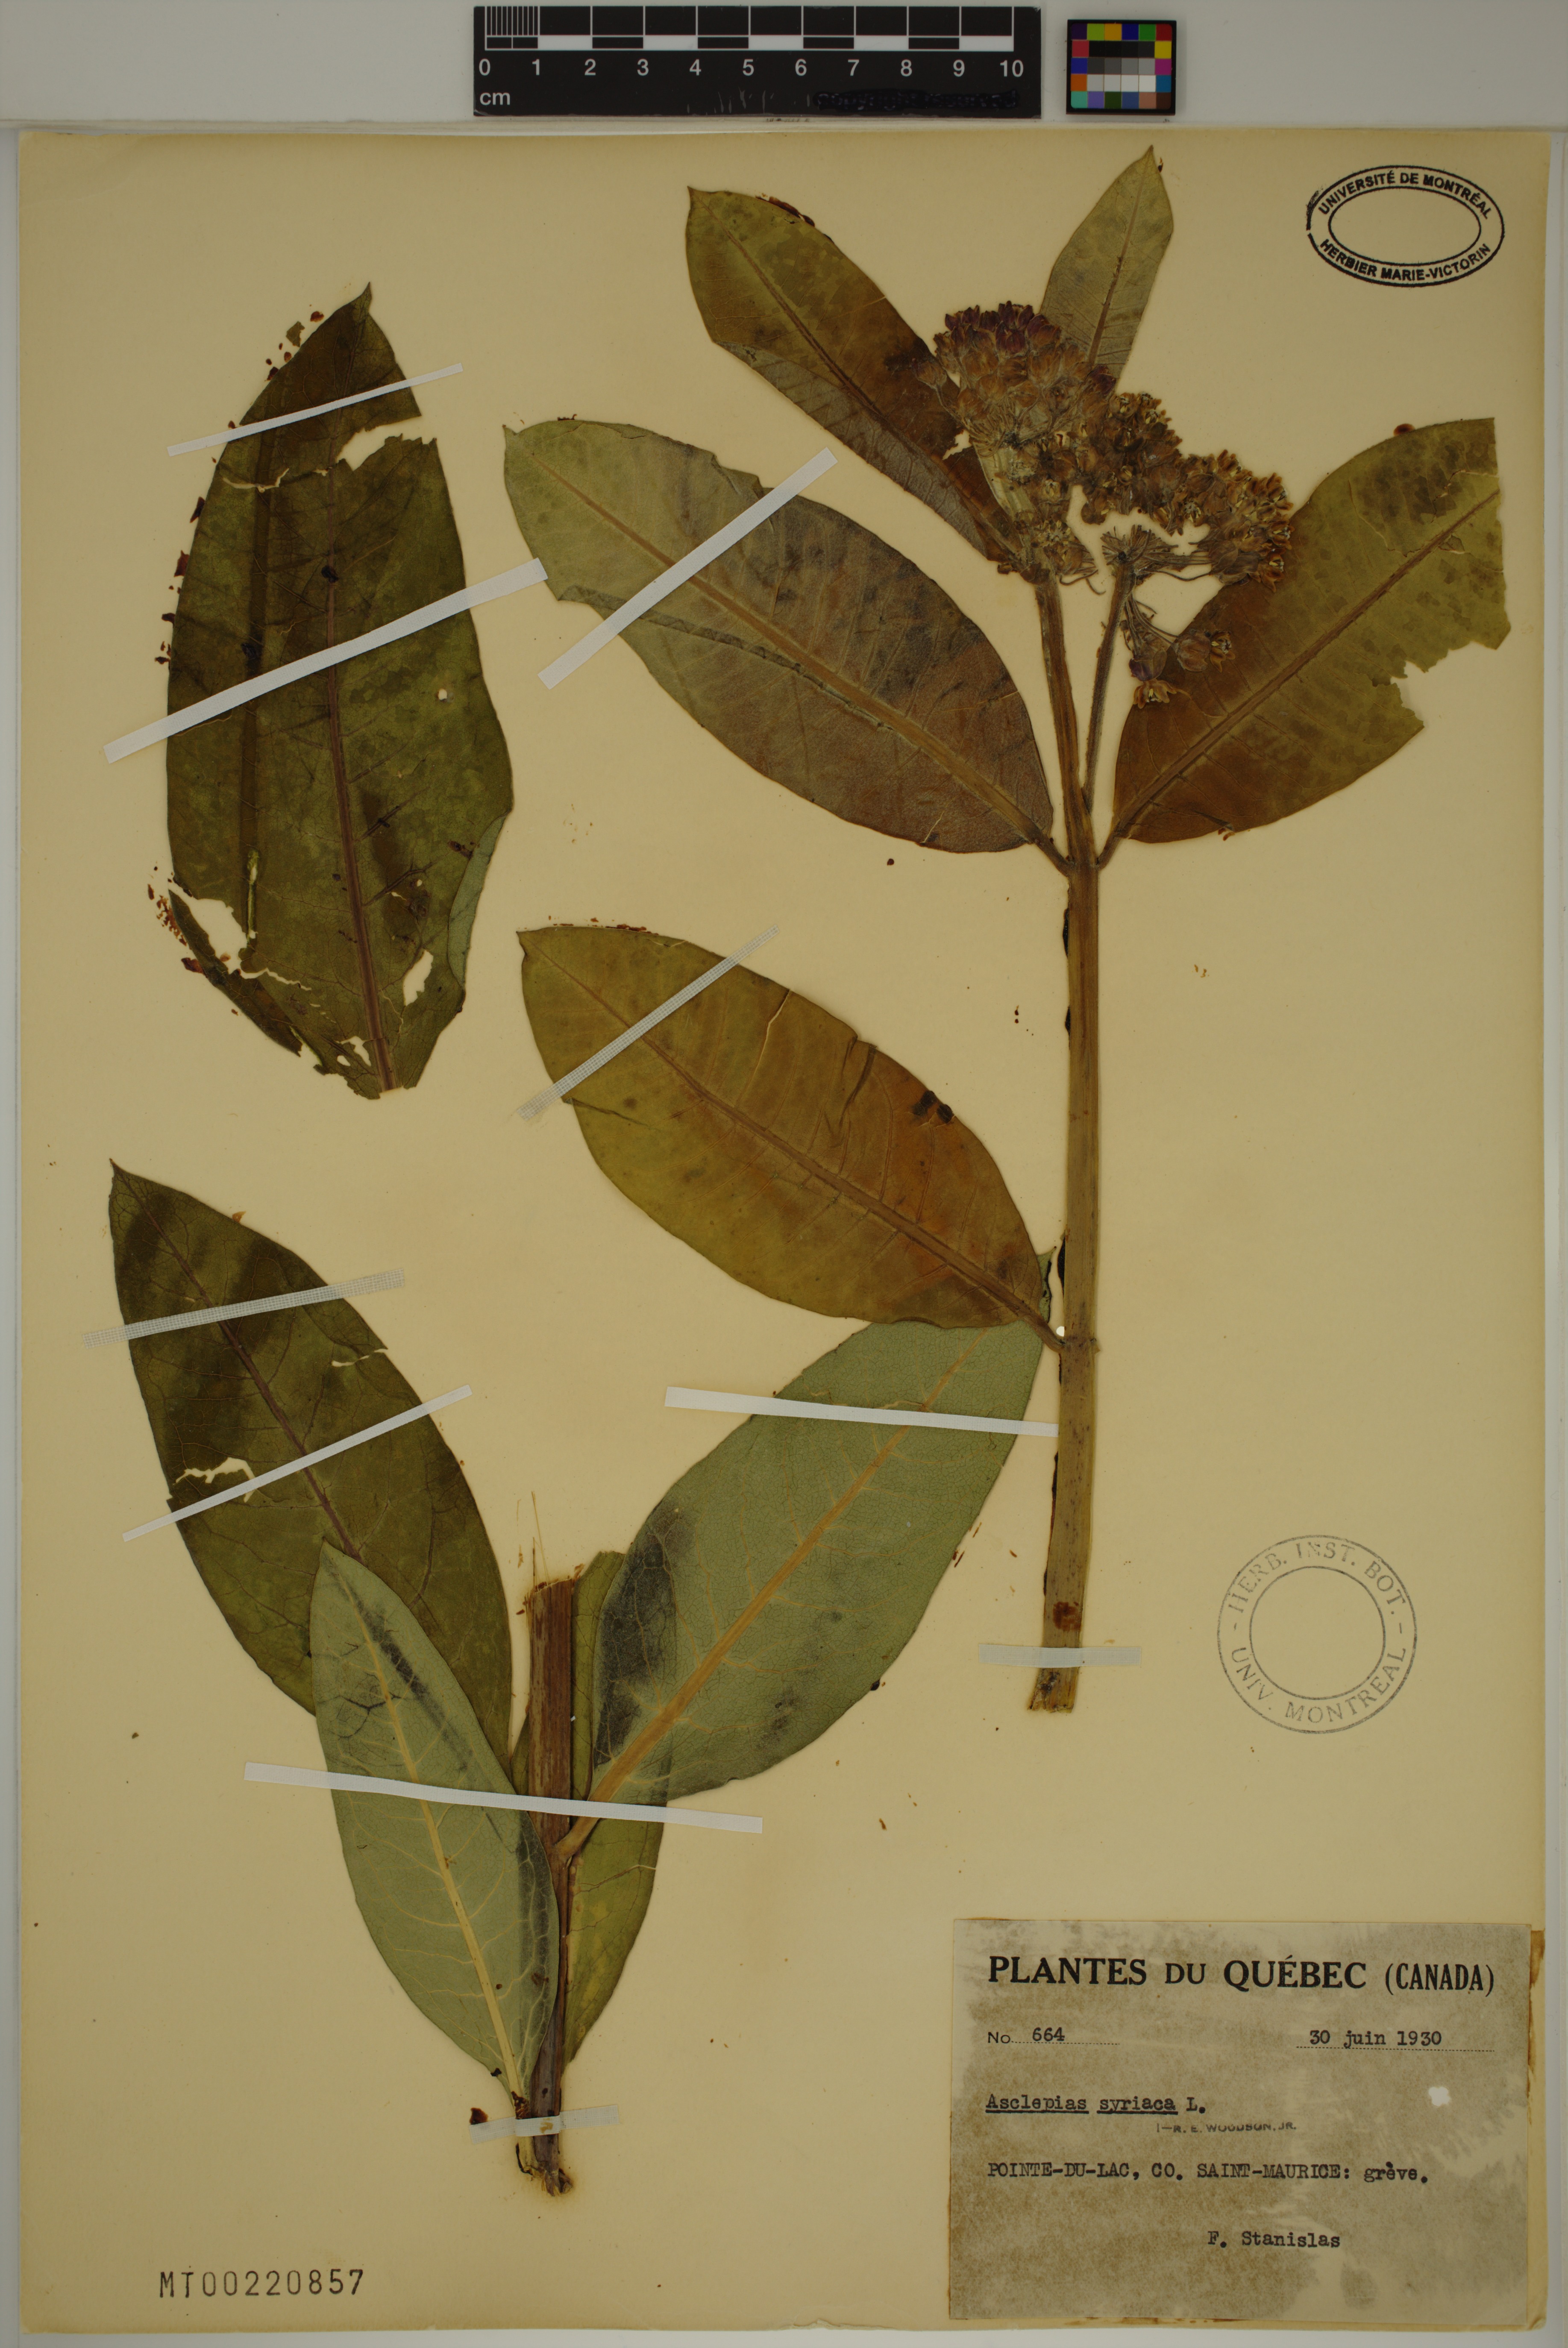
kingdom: Plantae
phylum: Tracheophyta
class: Magnoliopsida
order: Gentianales
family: Apocynaceae
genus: Asclepias
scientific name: Asclepias syriaca
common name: Common milkweed
